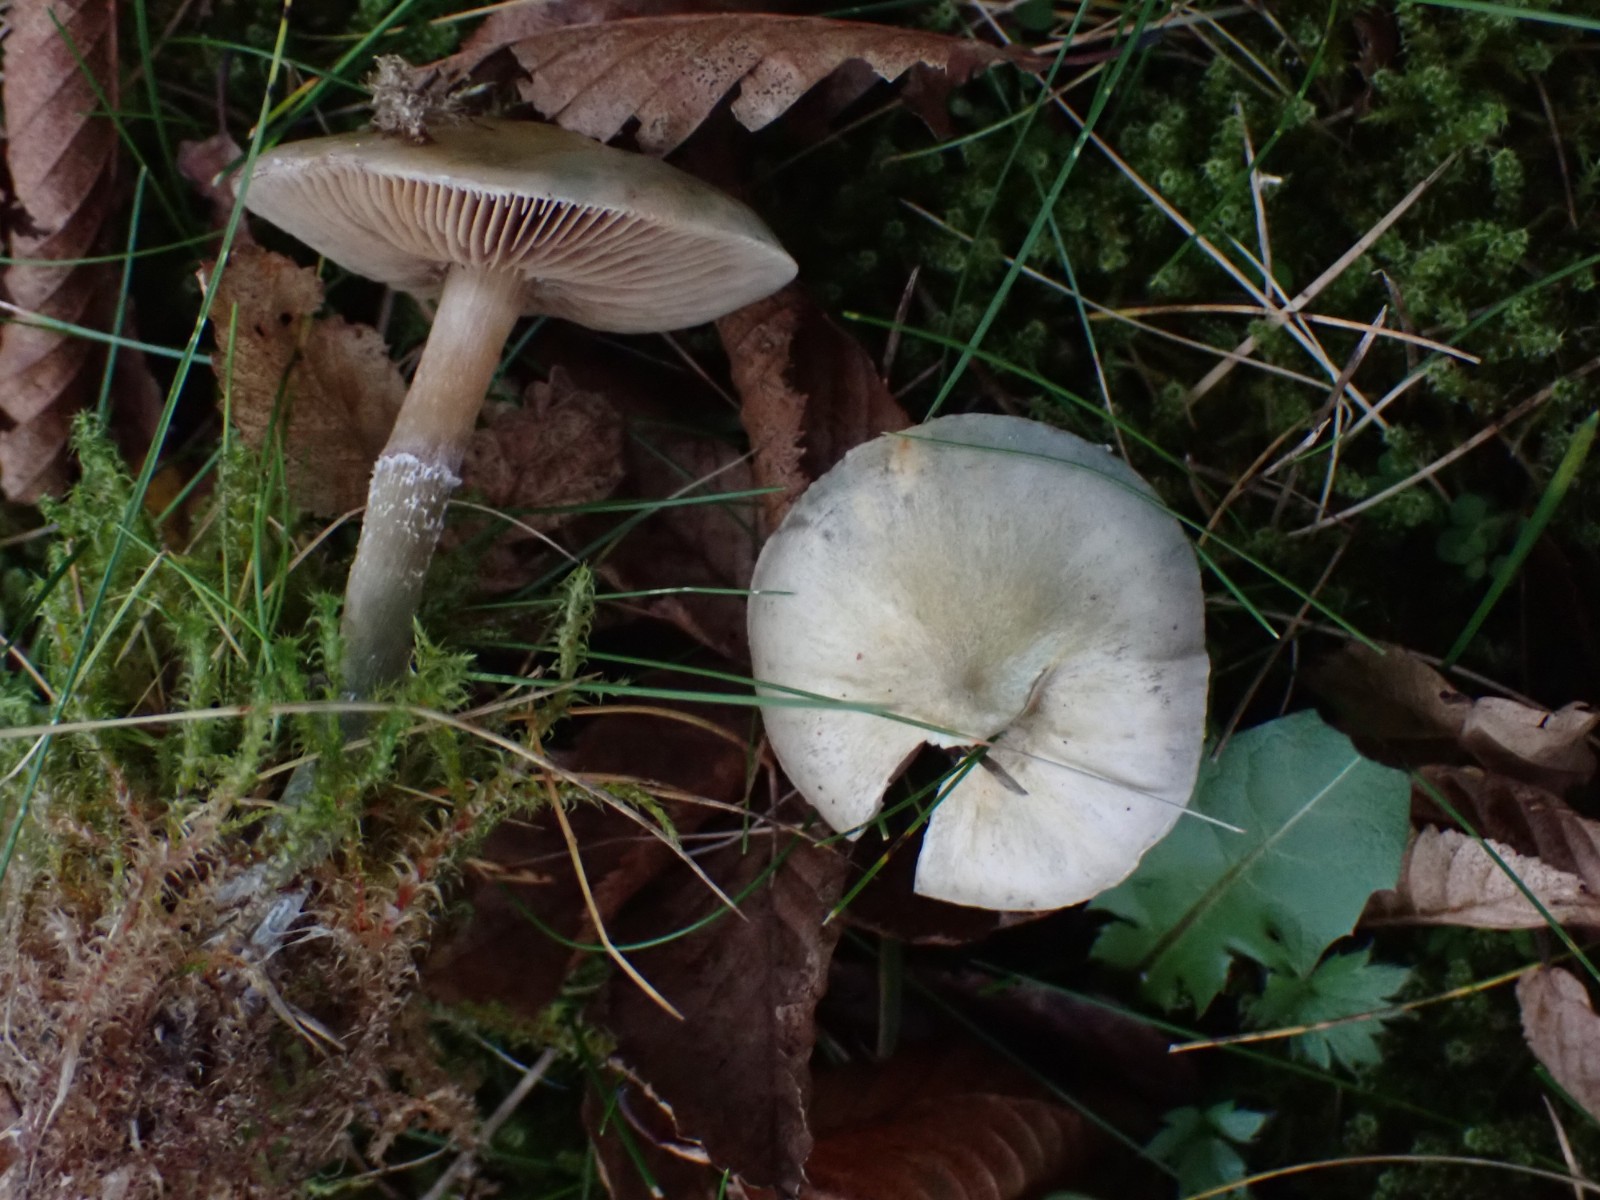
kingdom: Fungi
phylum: Basidiomycota
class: Agaricomycetes
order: Agaricales
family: Strophariaceae
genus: Stropharia
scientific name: Stropharia cyanea
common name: blågrøn bredblad
